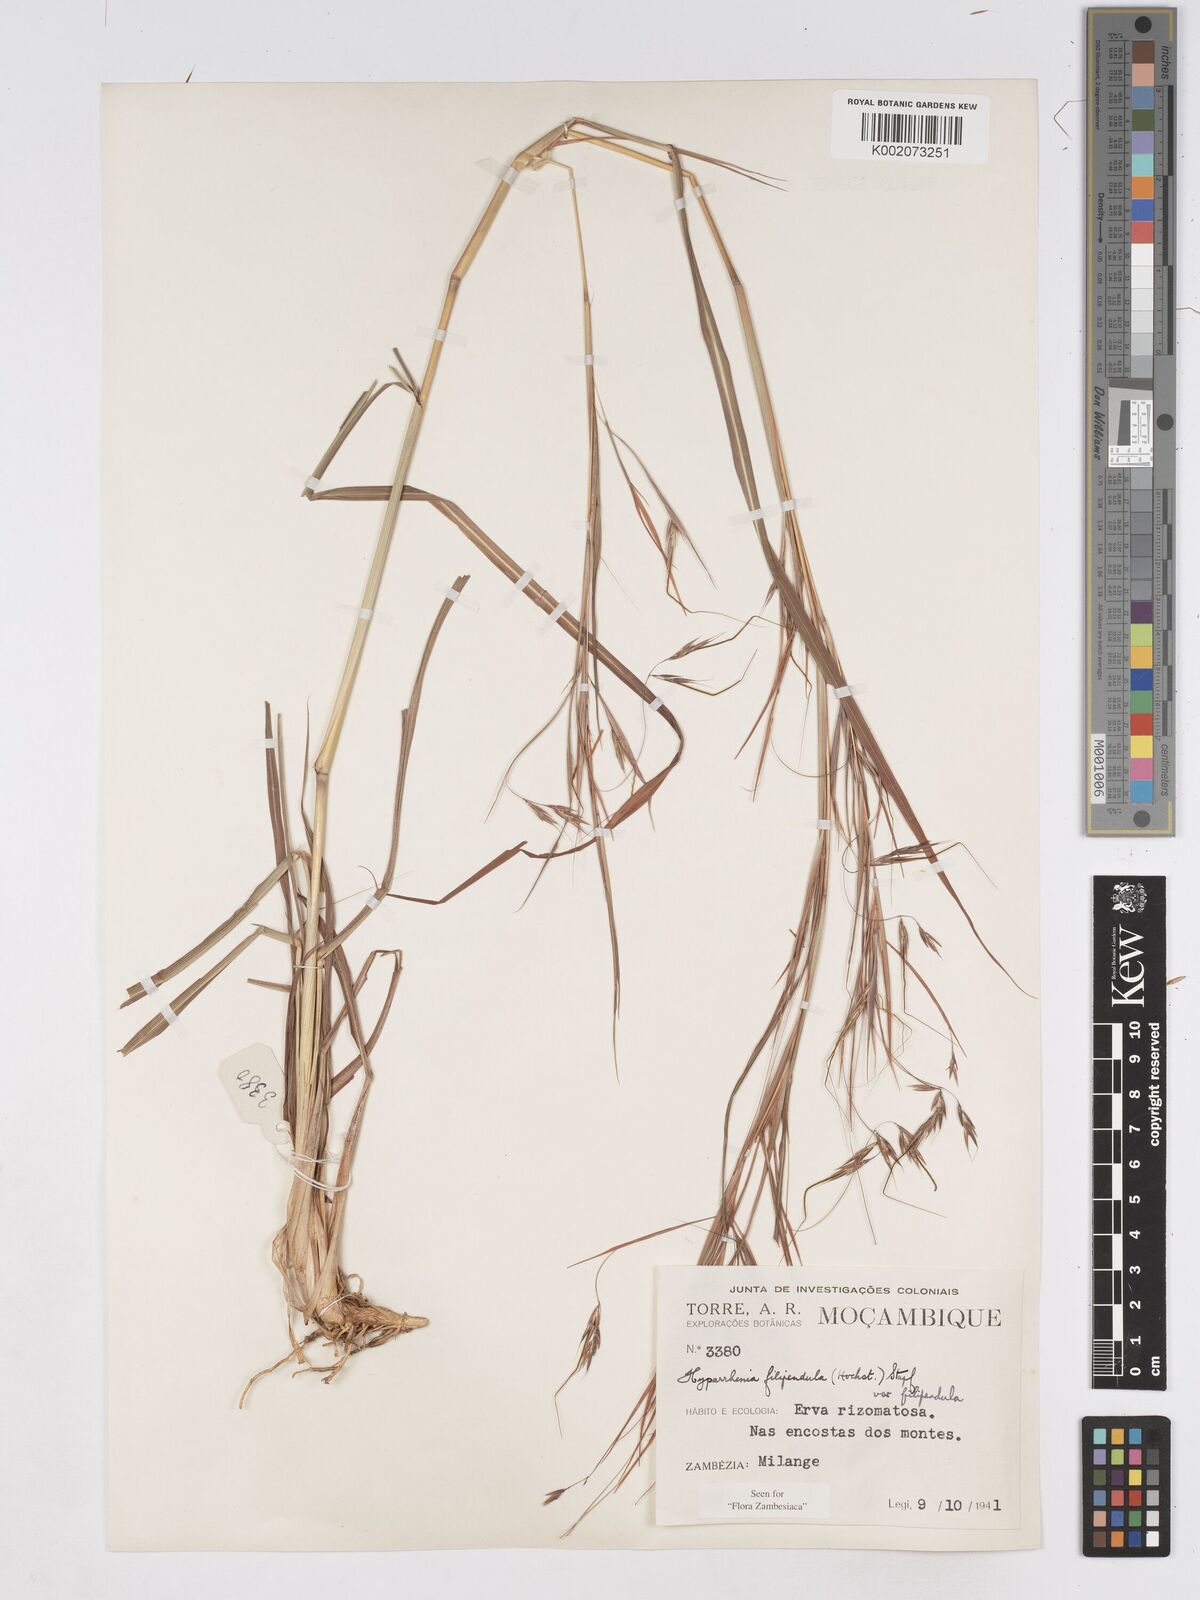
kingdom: Plantae
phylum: Tracheophyta
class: Liliopsida
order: Poales
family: Poaceae
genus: Hyparrhenia
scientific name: Hyparrhenia filipendula
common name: Tambookie grass
